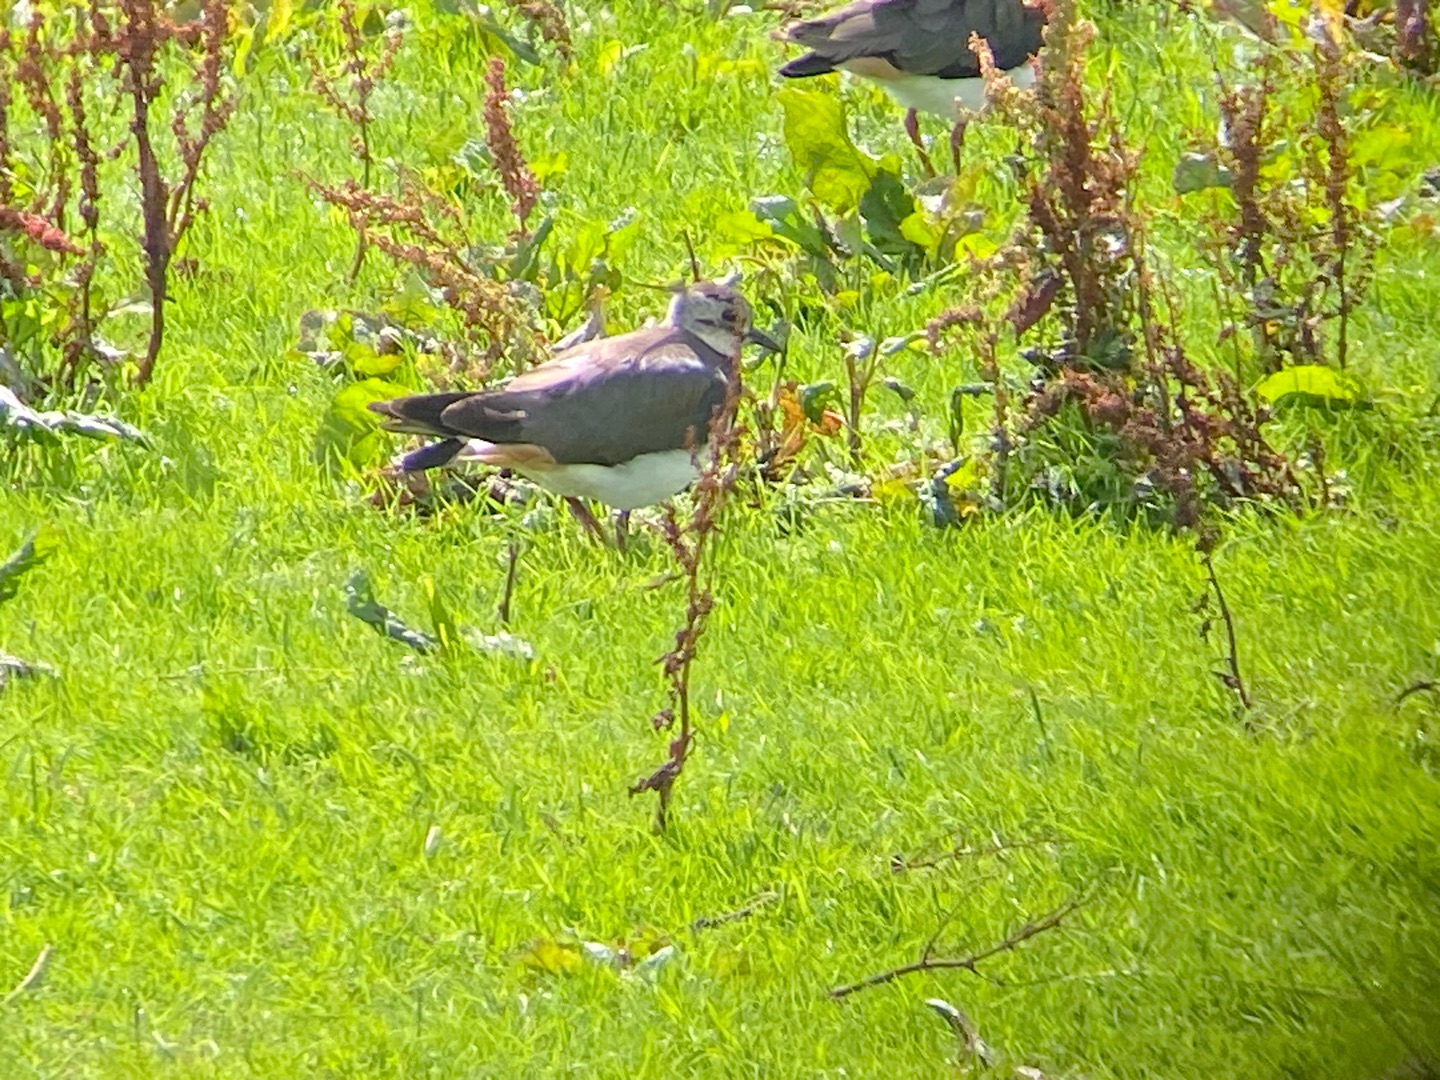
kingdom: Animalia
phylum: Chordata
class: Aves
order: Charadriiformes
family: Charadriidae
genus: Vanellus
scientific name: Vanellus vanellus
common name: Vibe
